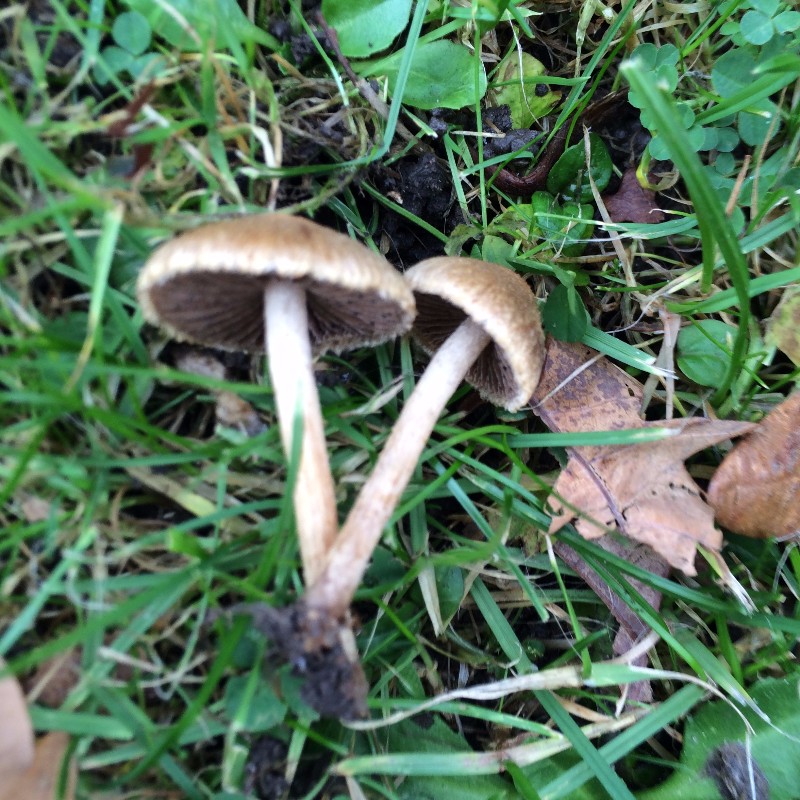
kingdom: Fungi
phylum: Basidiomycota
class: Agaricomycetes
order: Agaricales
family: Psathyrellaceae
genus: Lacrymaria
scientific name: Lacrymaria lacrymabunda
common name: grædende mørkhat
